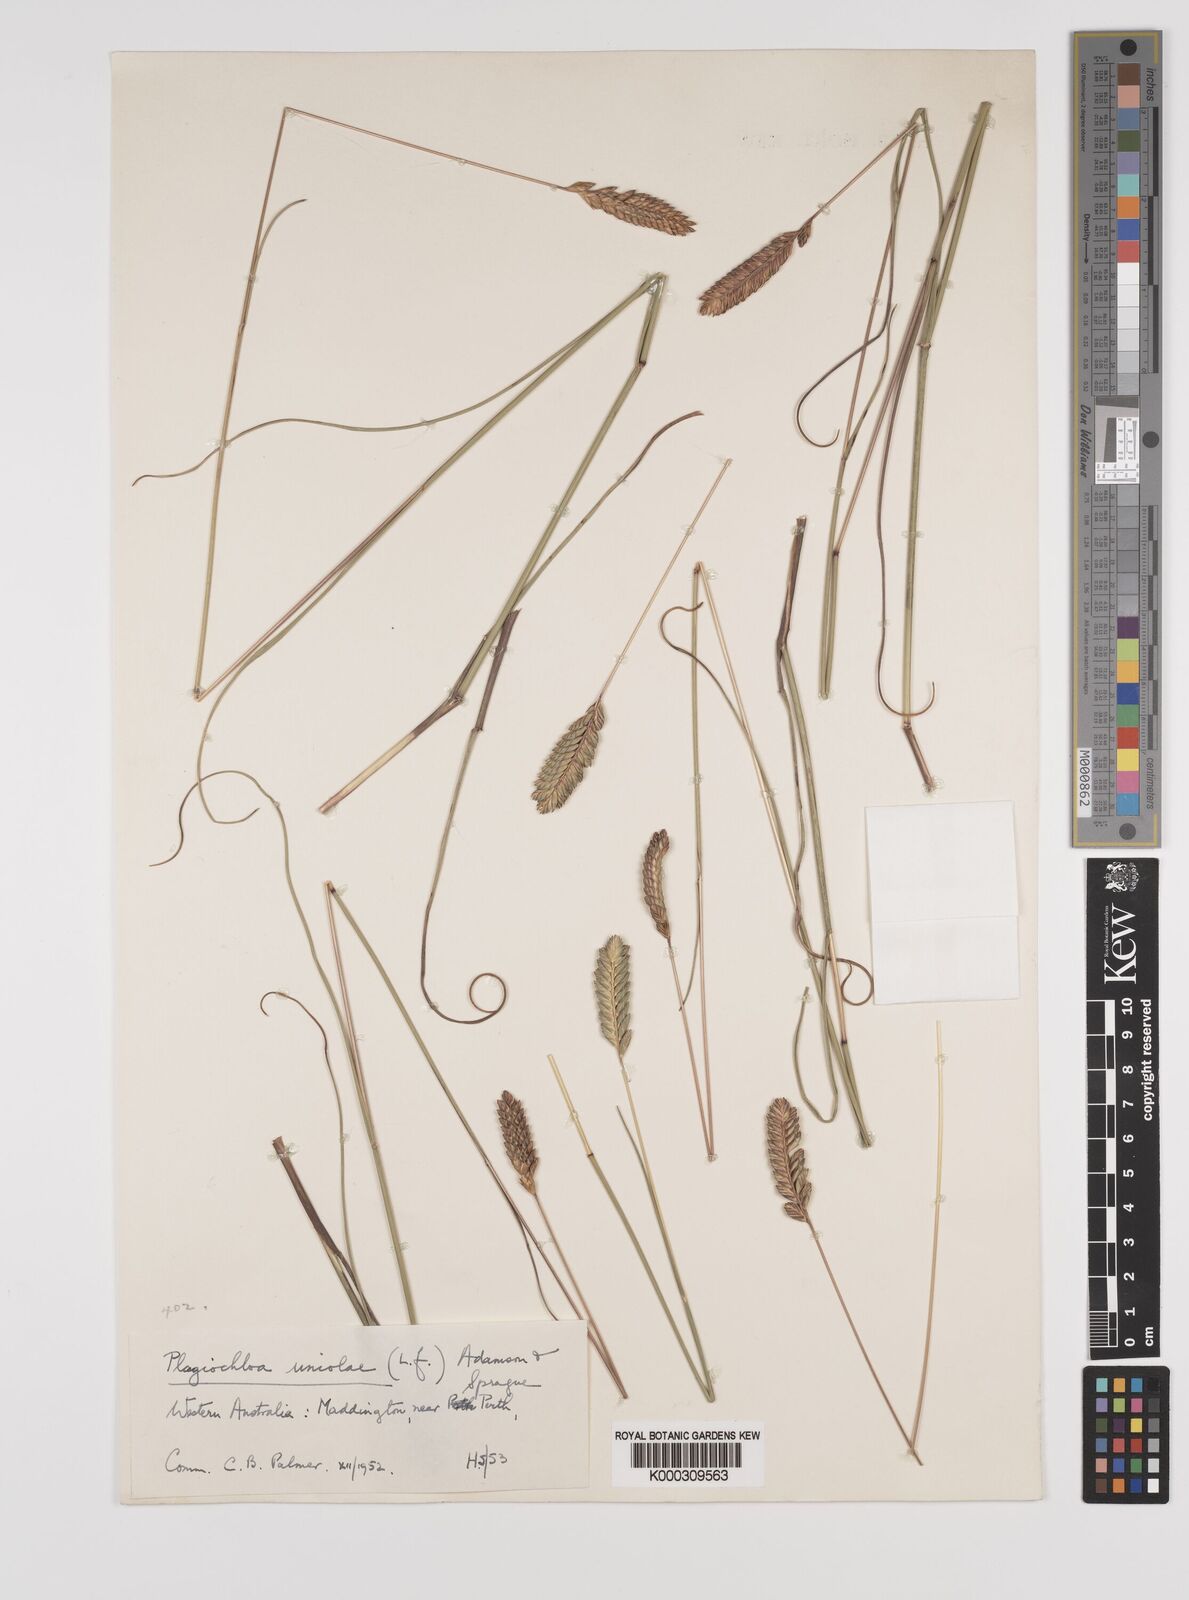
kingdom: Plantae
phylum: Tracheophyta
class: Liliopsida
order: Poales
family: Poaceae
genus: Tribolium
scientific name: Tribolium uniolae
